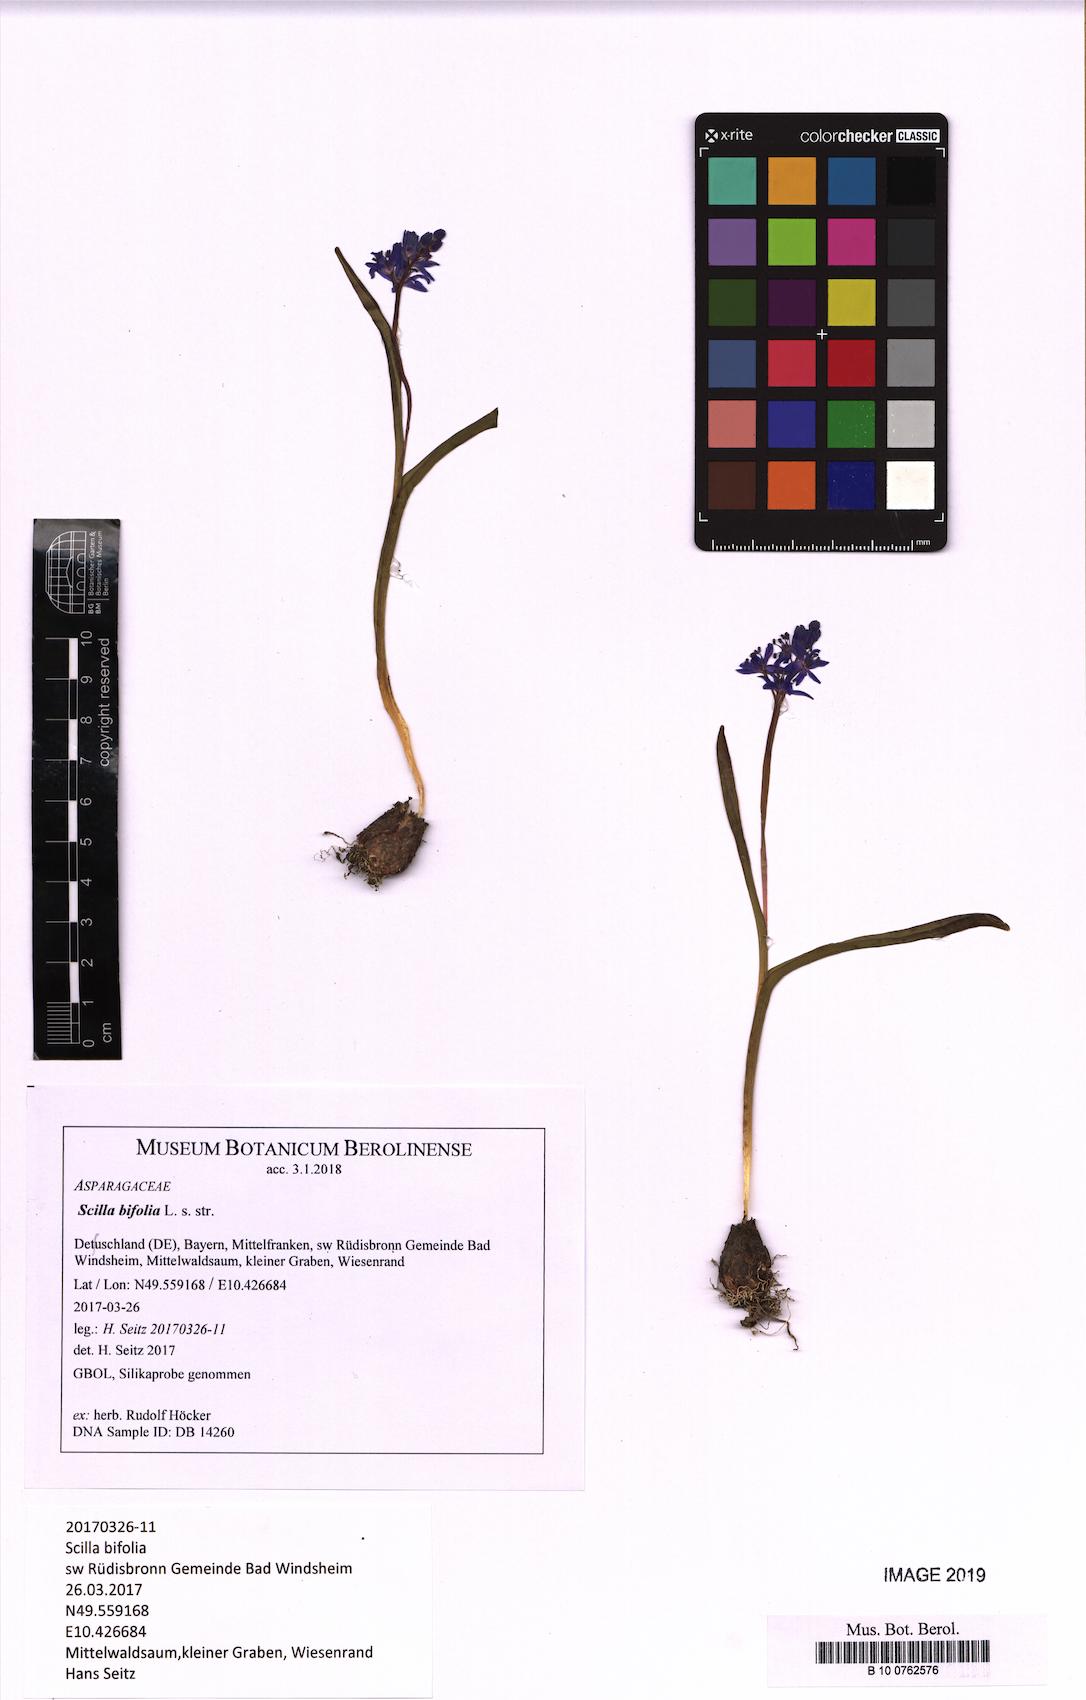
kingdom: Plantae
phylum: Tracheophyta
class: Liliopsida
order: Asparagales
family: Asparagaceae
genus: Scilla
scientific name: Scilla bifolia
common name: Alpine squill
